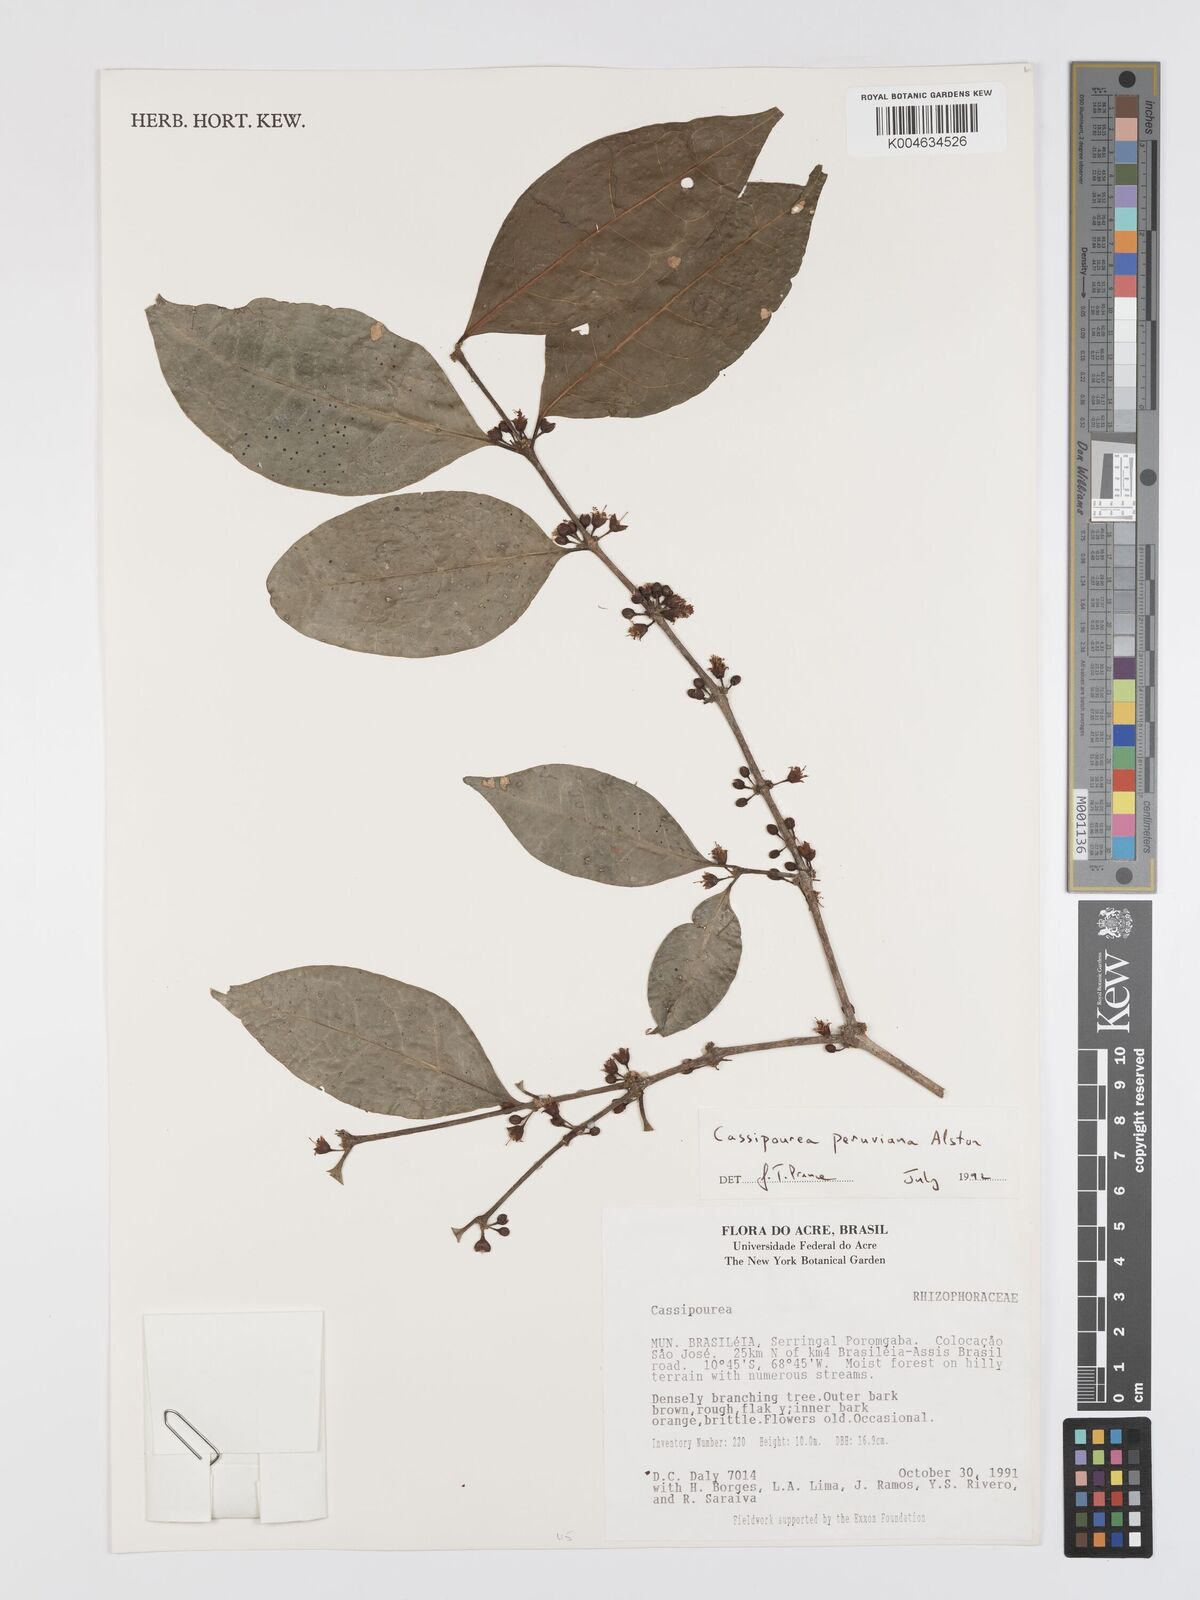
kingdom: Plantae
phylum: Tracheophyta
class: Magnoliopsida
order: Malpighiales
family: Rhizophoraceae
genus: Cassipourea
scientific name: Cassipourea peruviana
